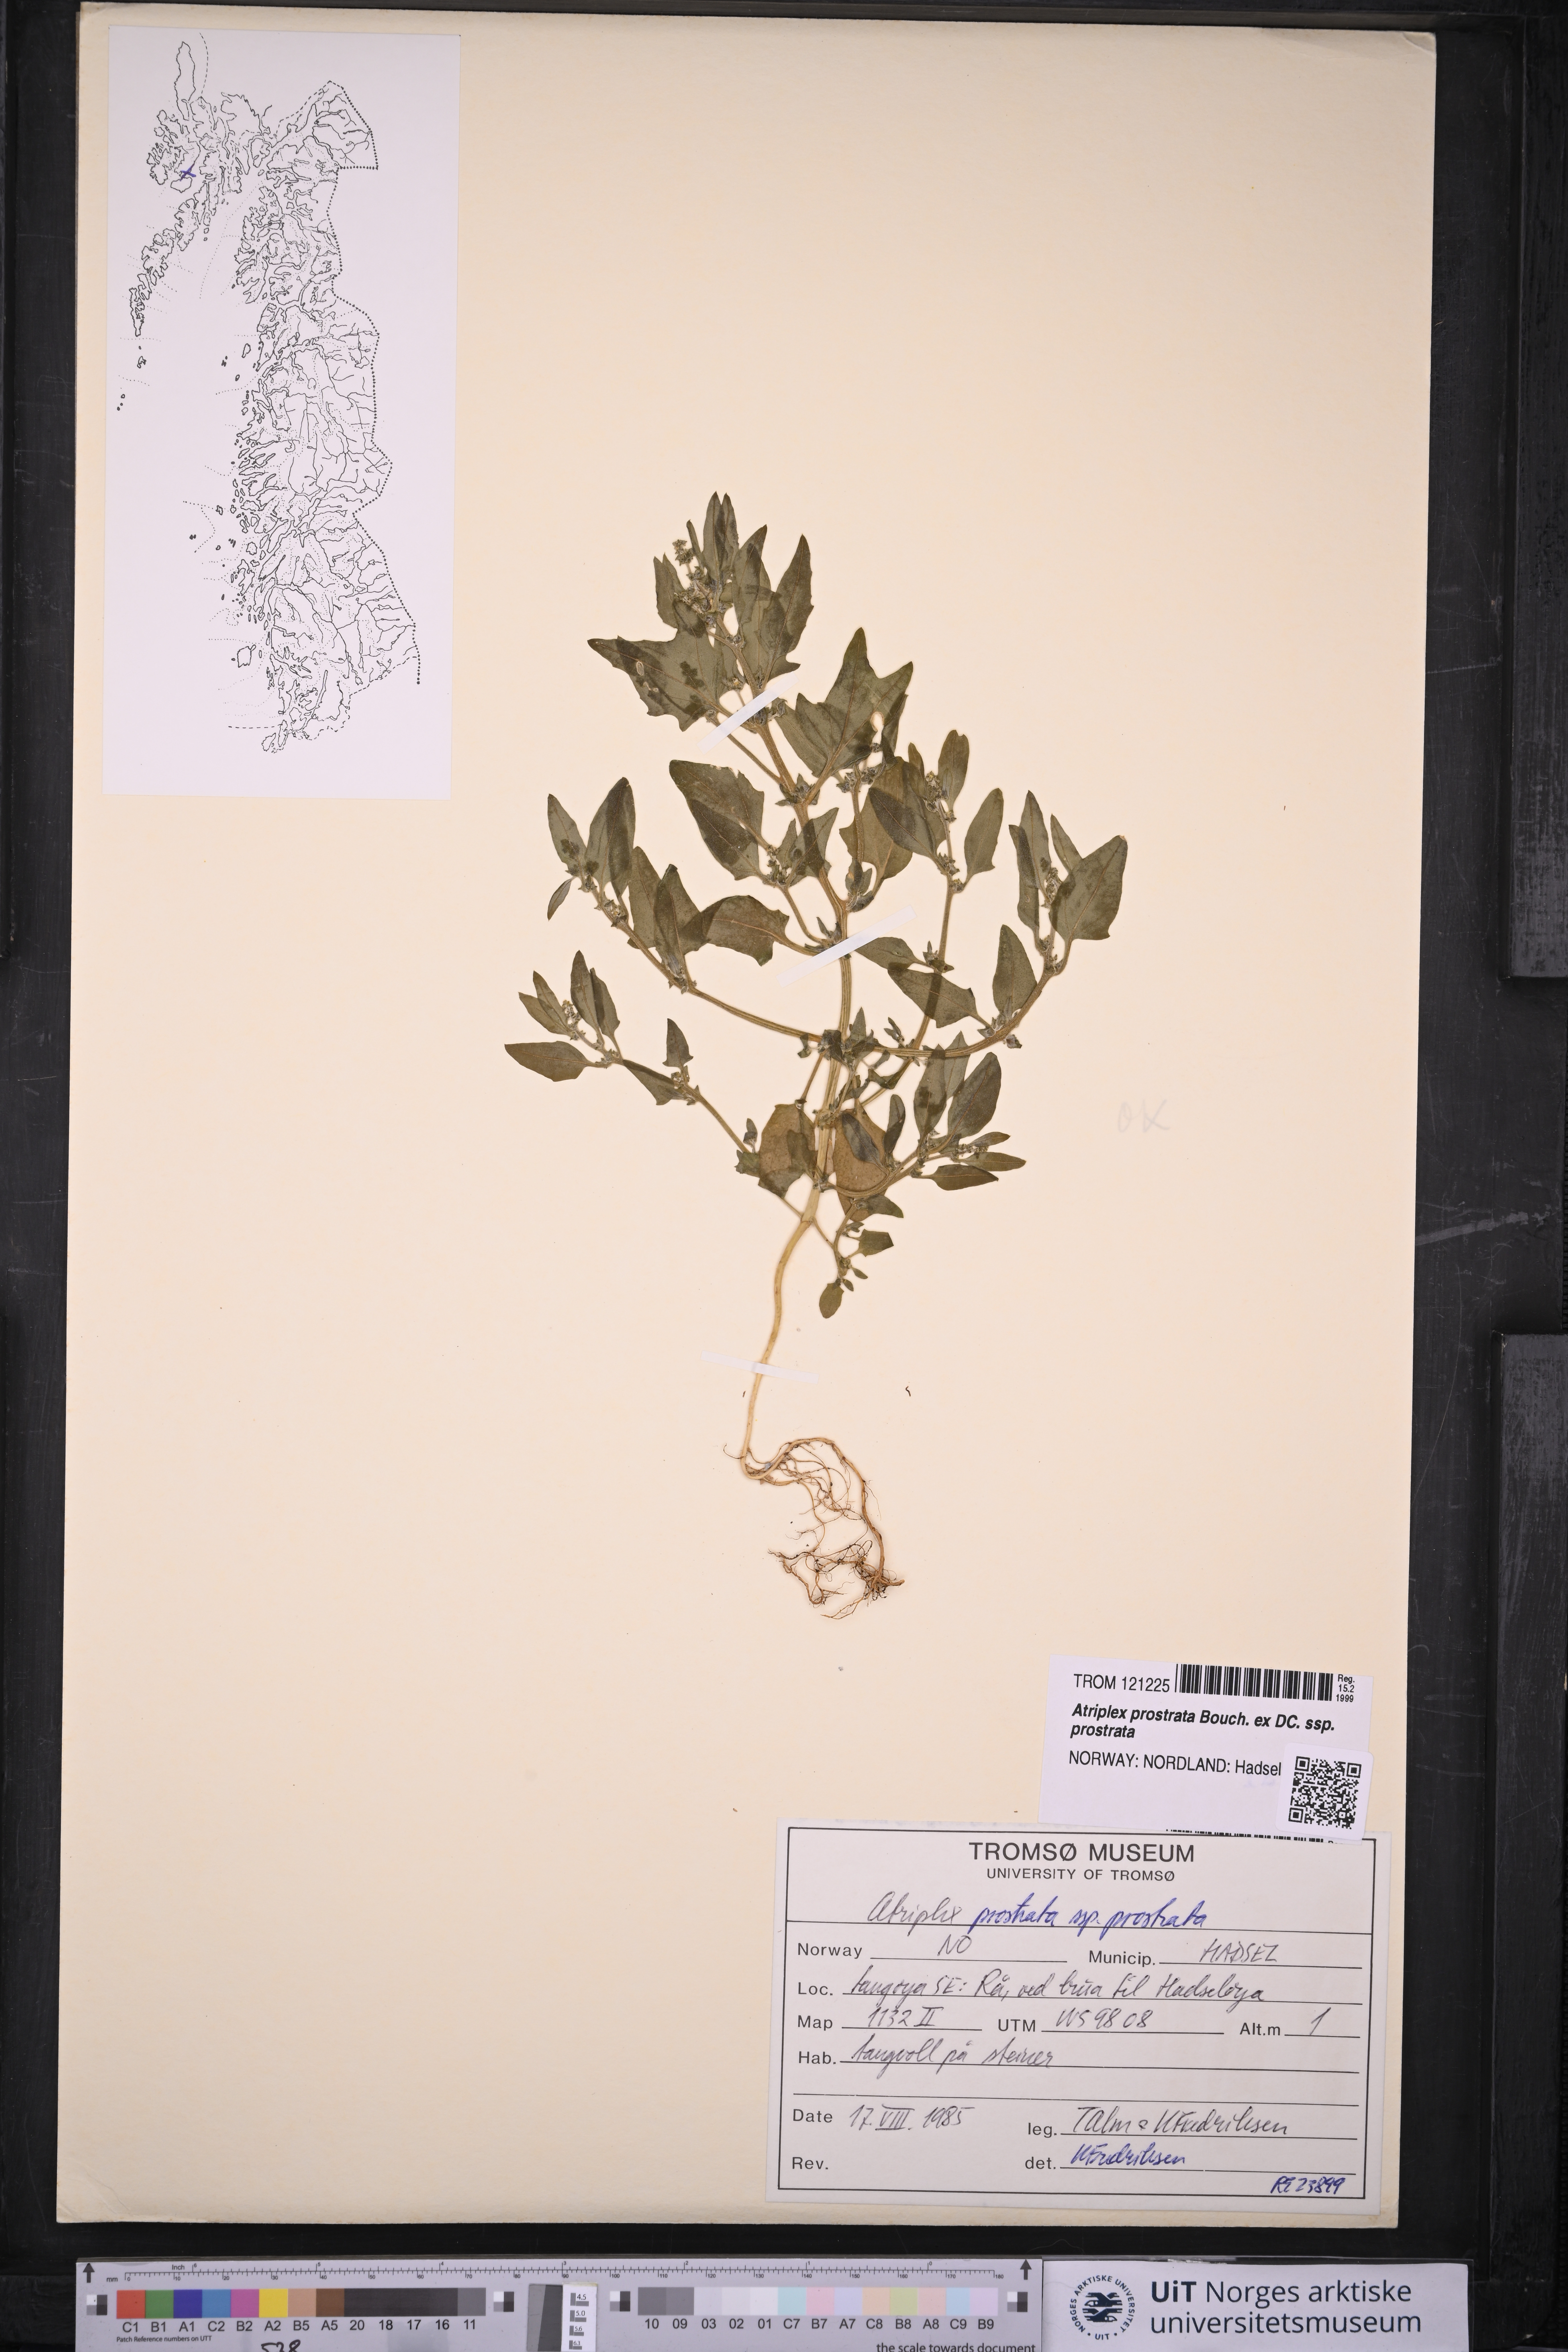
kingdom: Plantae
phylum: Tracheophyta
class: Magnoliopsida
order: Caryophyllales
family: Amaranthaceae
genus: Atriplex
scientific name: Atriplex prostrata
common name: Spear-leaved orache
